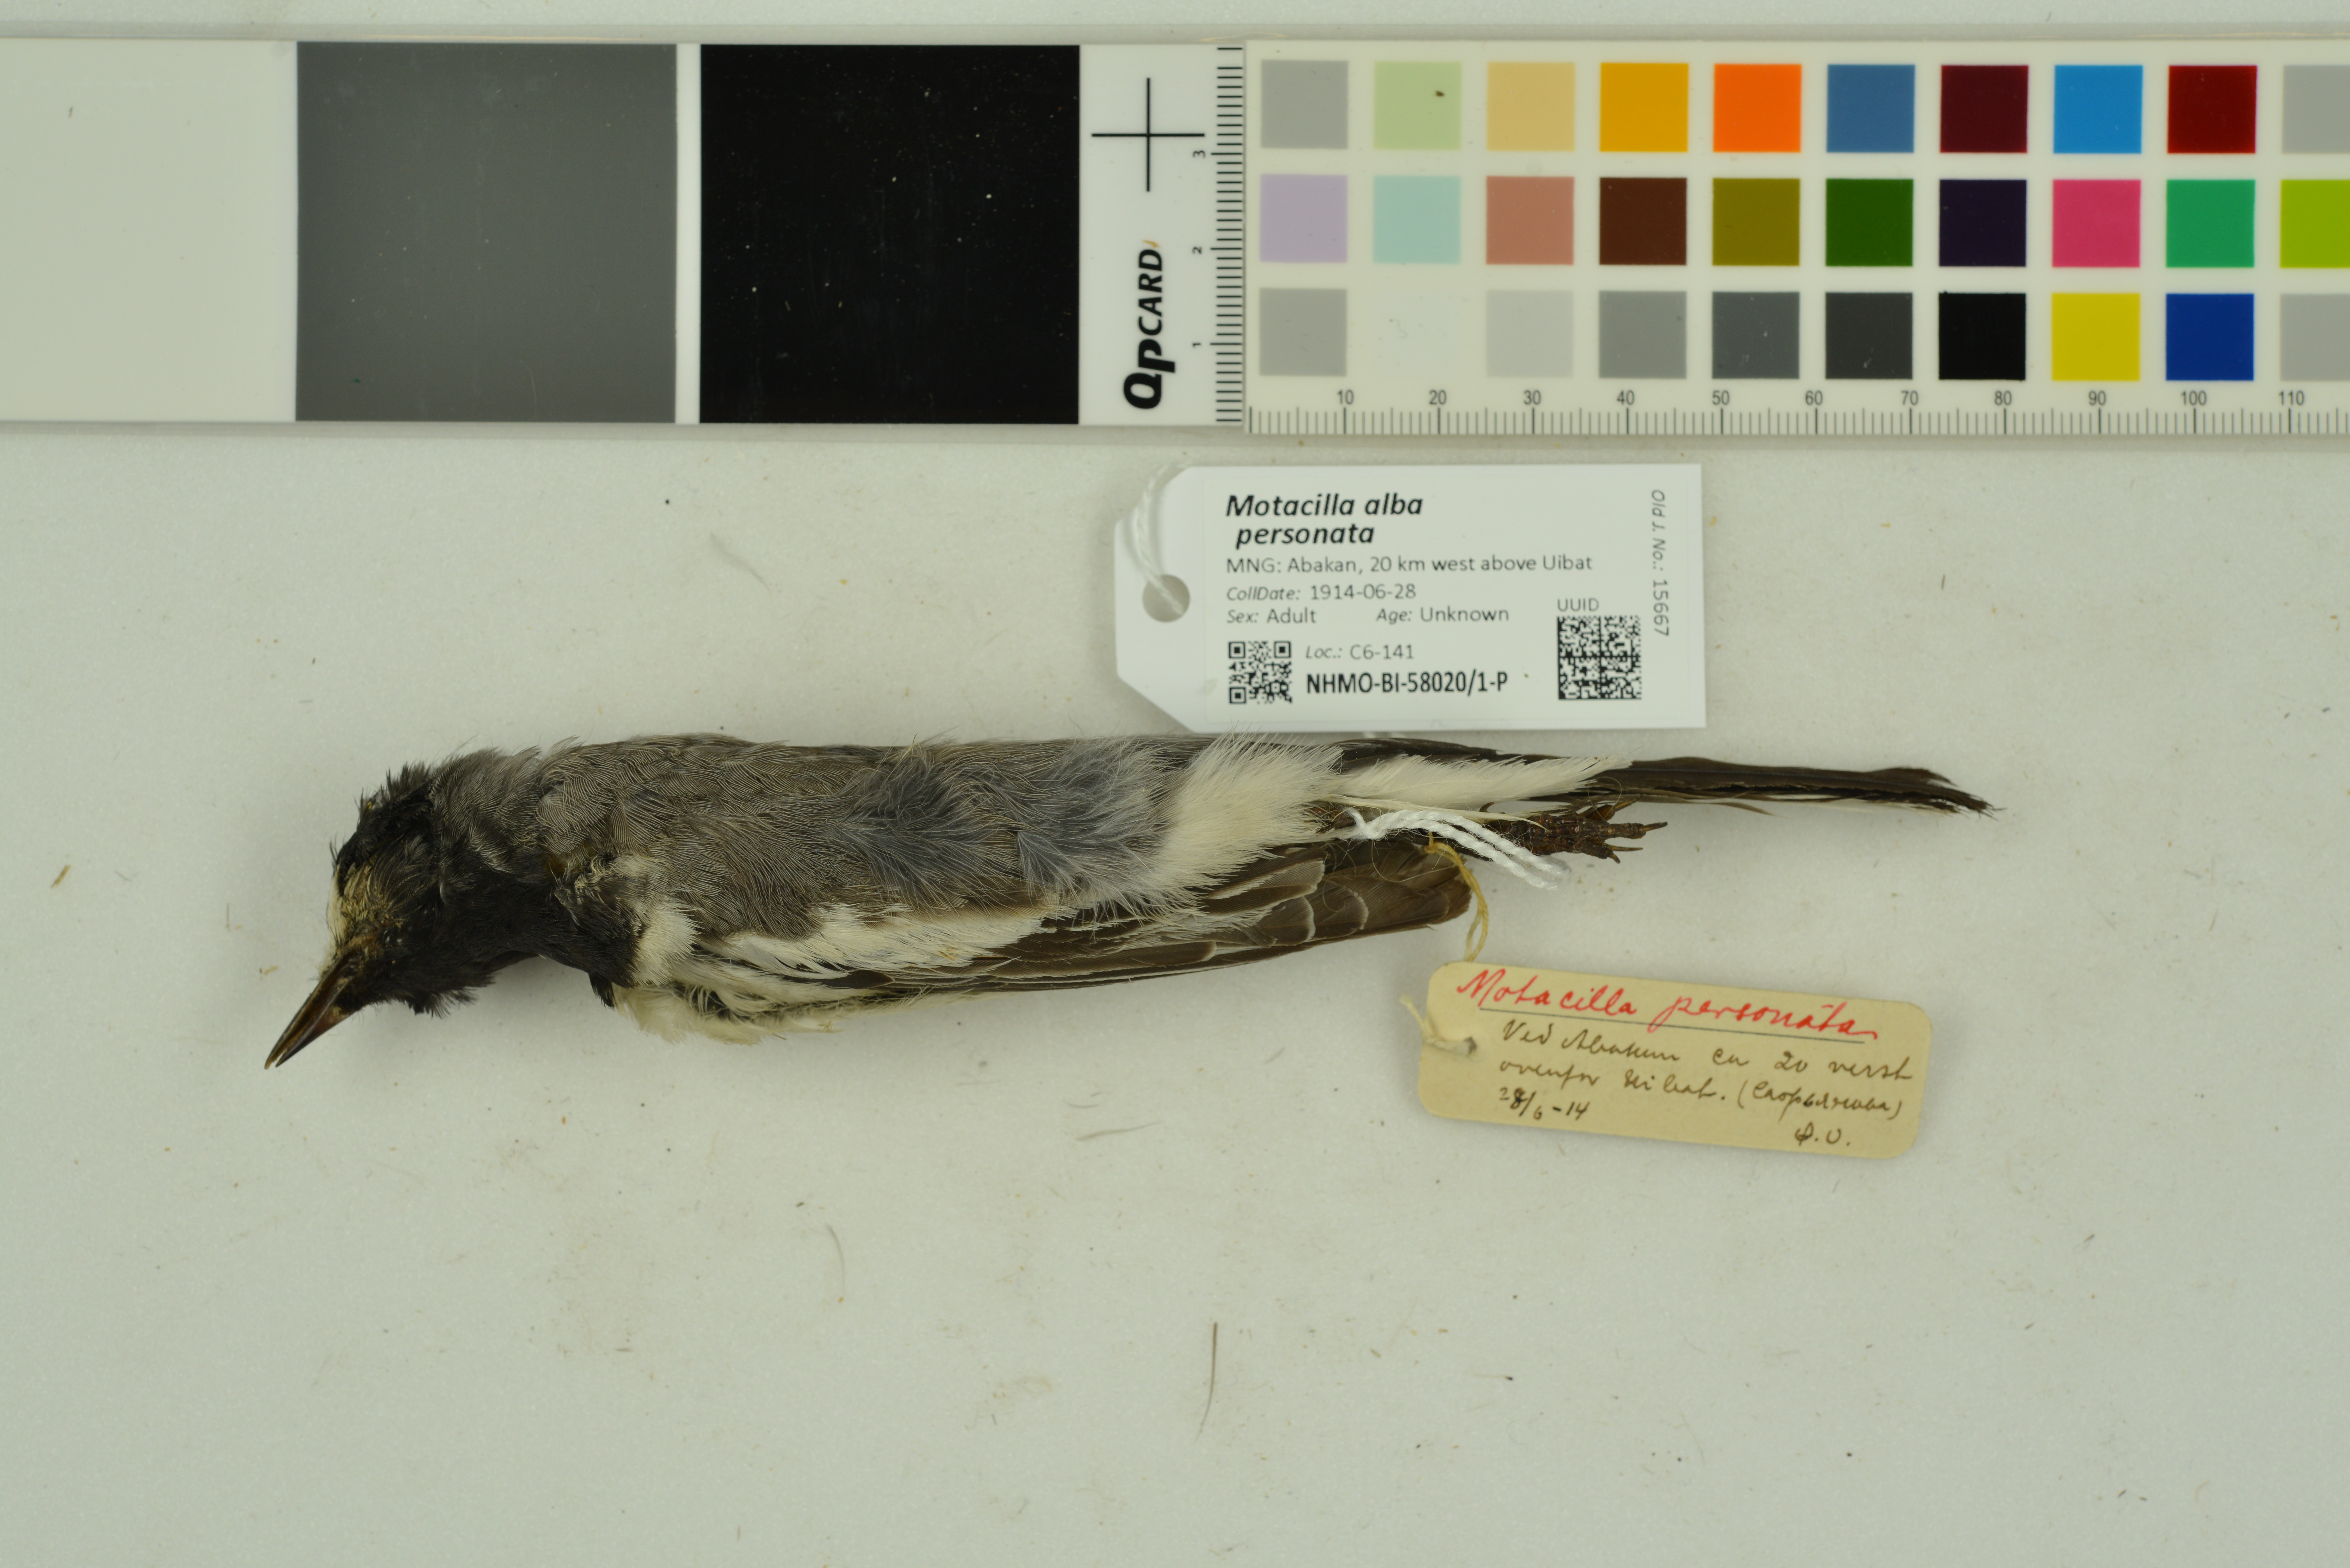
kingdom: Animalia
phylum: Chordata
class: Aves
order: Passeriformes
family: Motacillidae
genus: Motacilla
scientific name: Motacilla alba
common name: White wagtail
